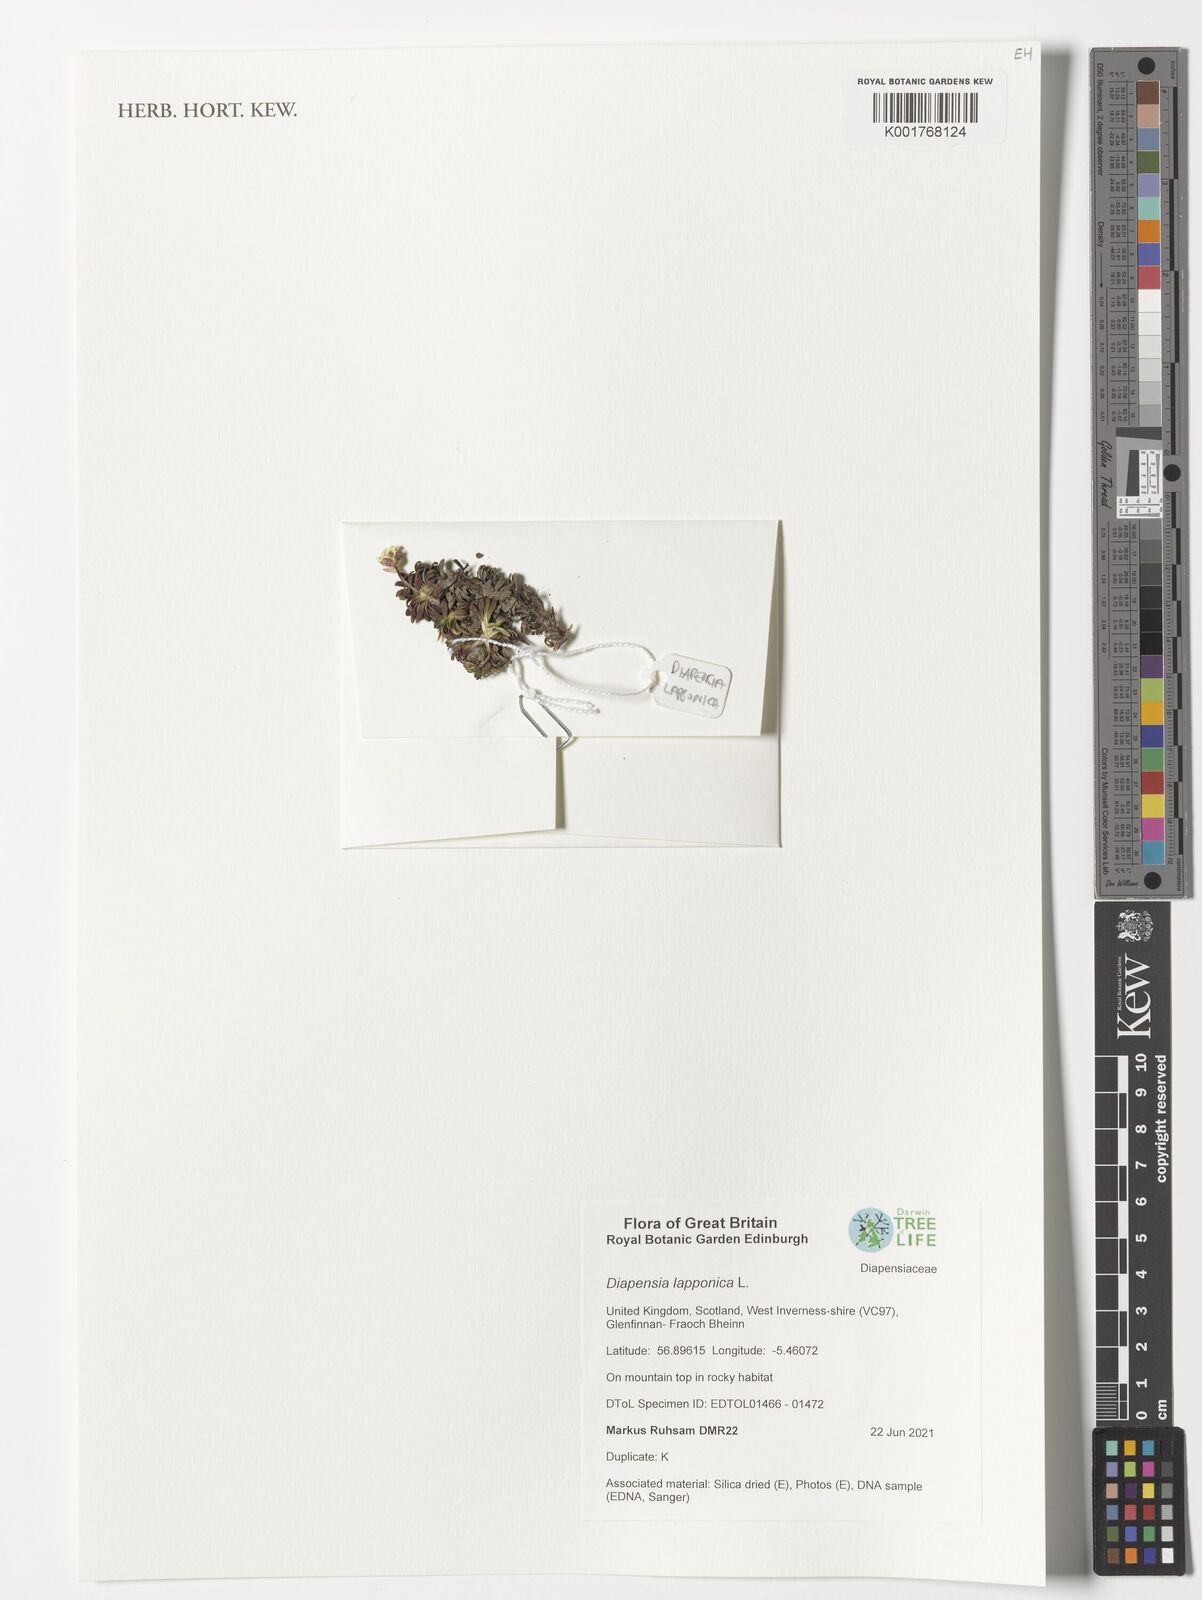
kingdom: Plantae
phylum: Tracheophyta
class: Magnoliopsida
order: Ericales
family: Diapensiaceae
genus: Diapensia
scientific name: Diapensia lapponica
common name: Diapensia
